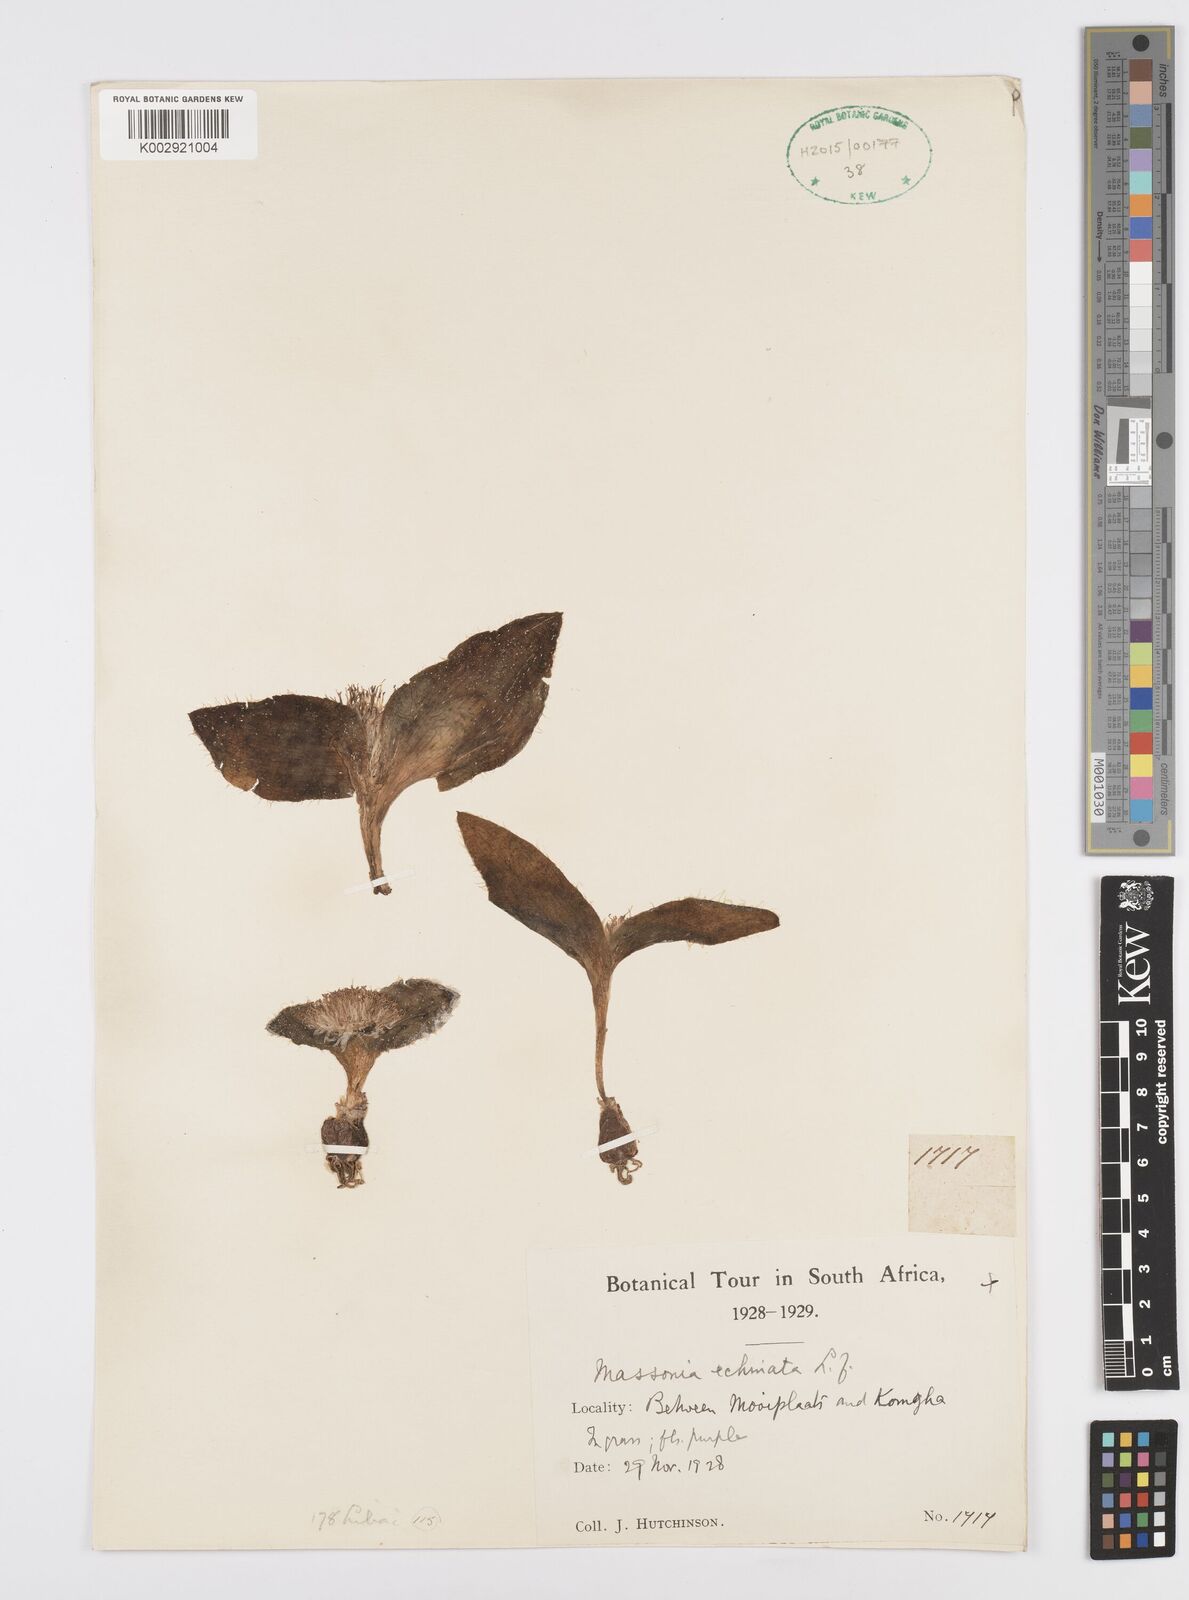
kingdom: Plantae
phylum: Tracheophyta
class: Liliopsida
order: Asparagales
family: Asparagaceae
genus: Massonia
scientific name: Massonia
